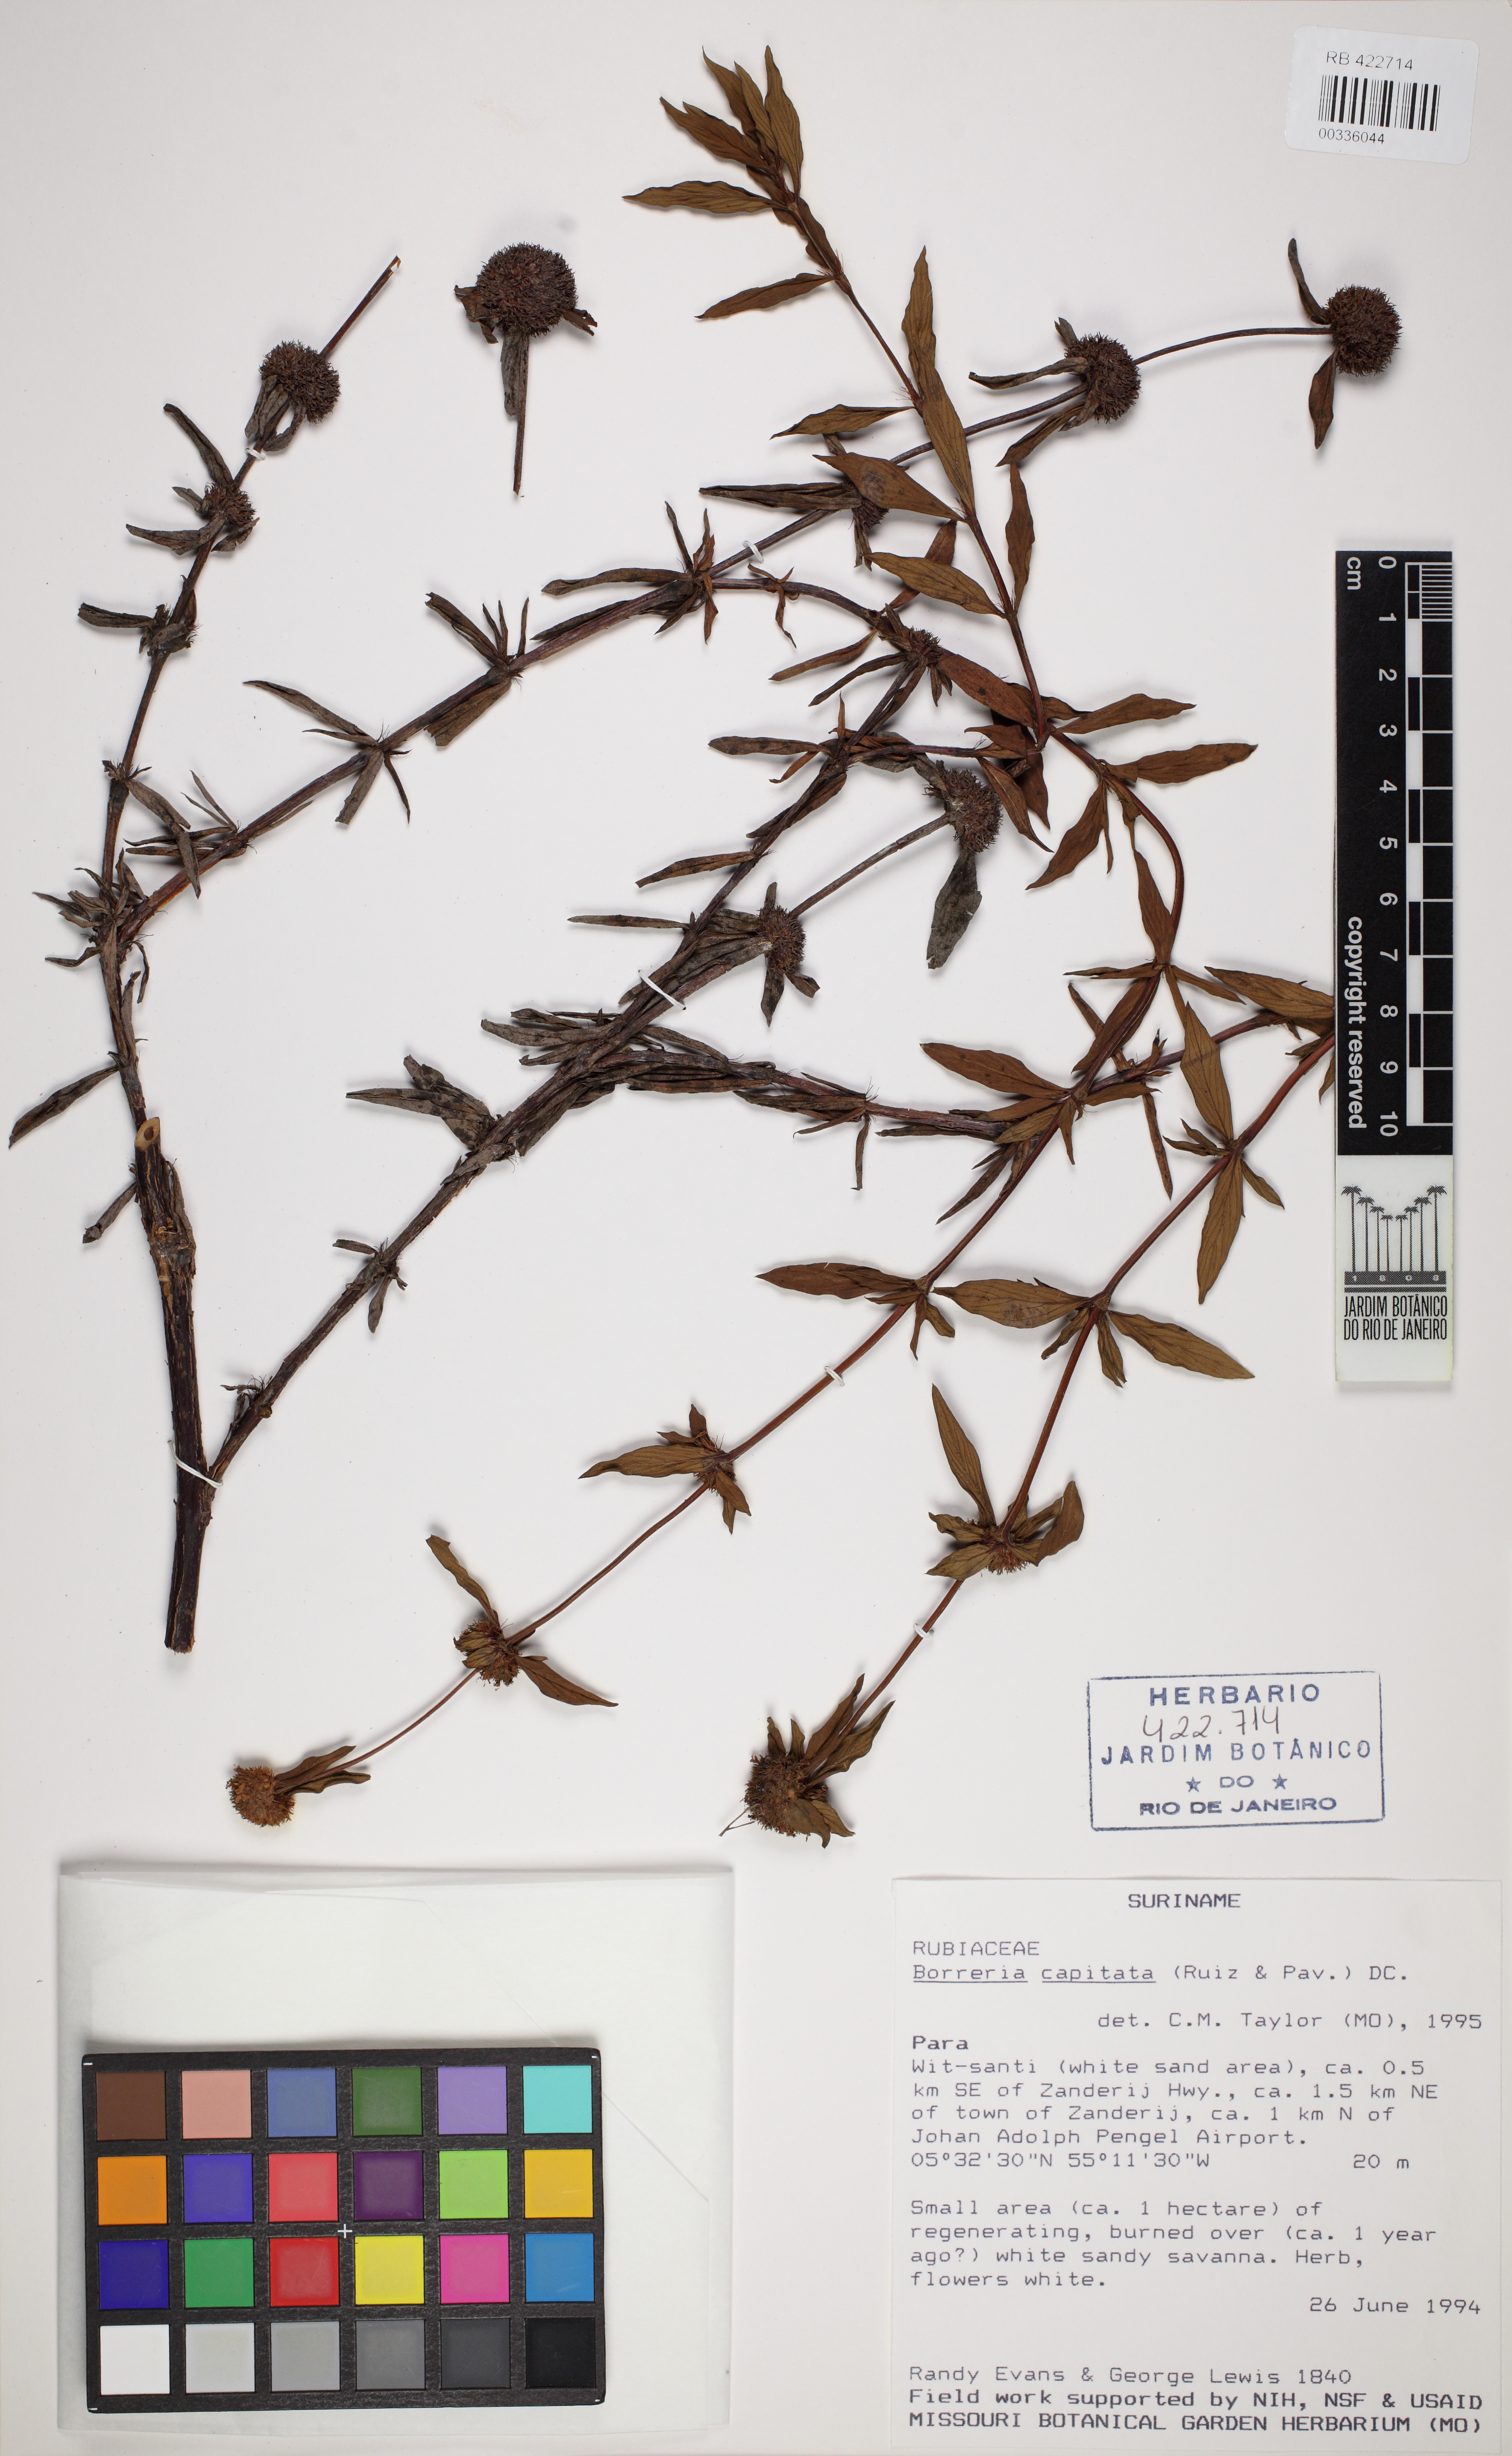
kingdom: Plantae
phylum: Tracheophyta
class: Magnoliopsida
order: Gentianales
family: Rubiaceae
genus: Spermacoce
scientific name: Spermacoce capitata
